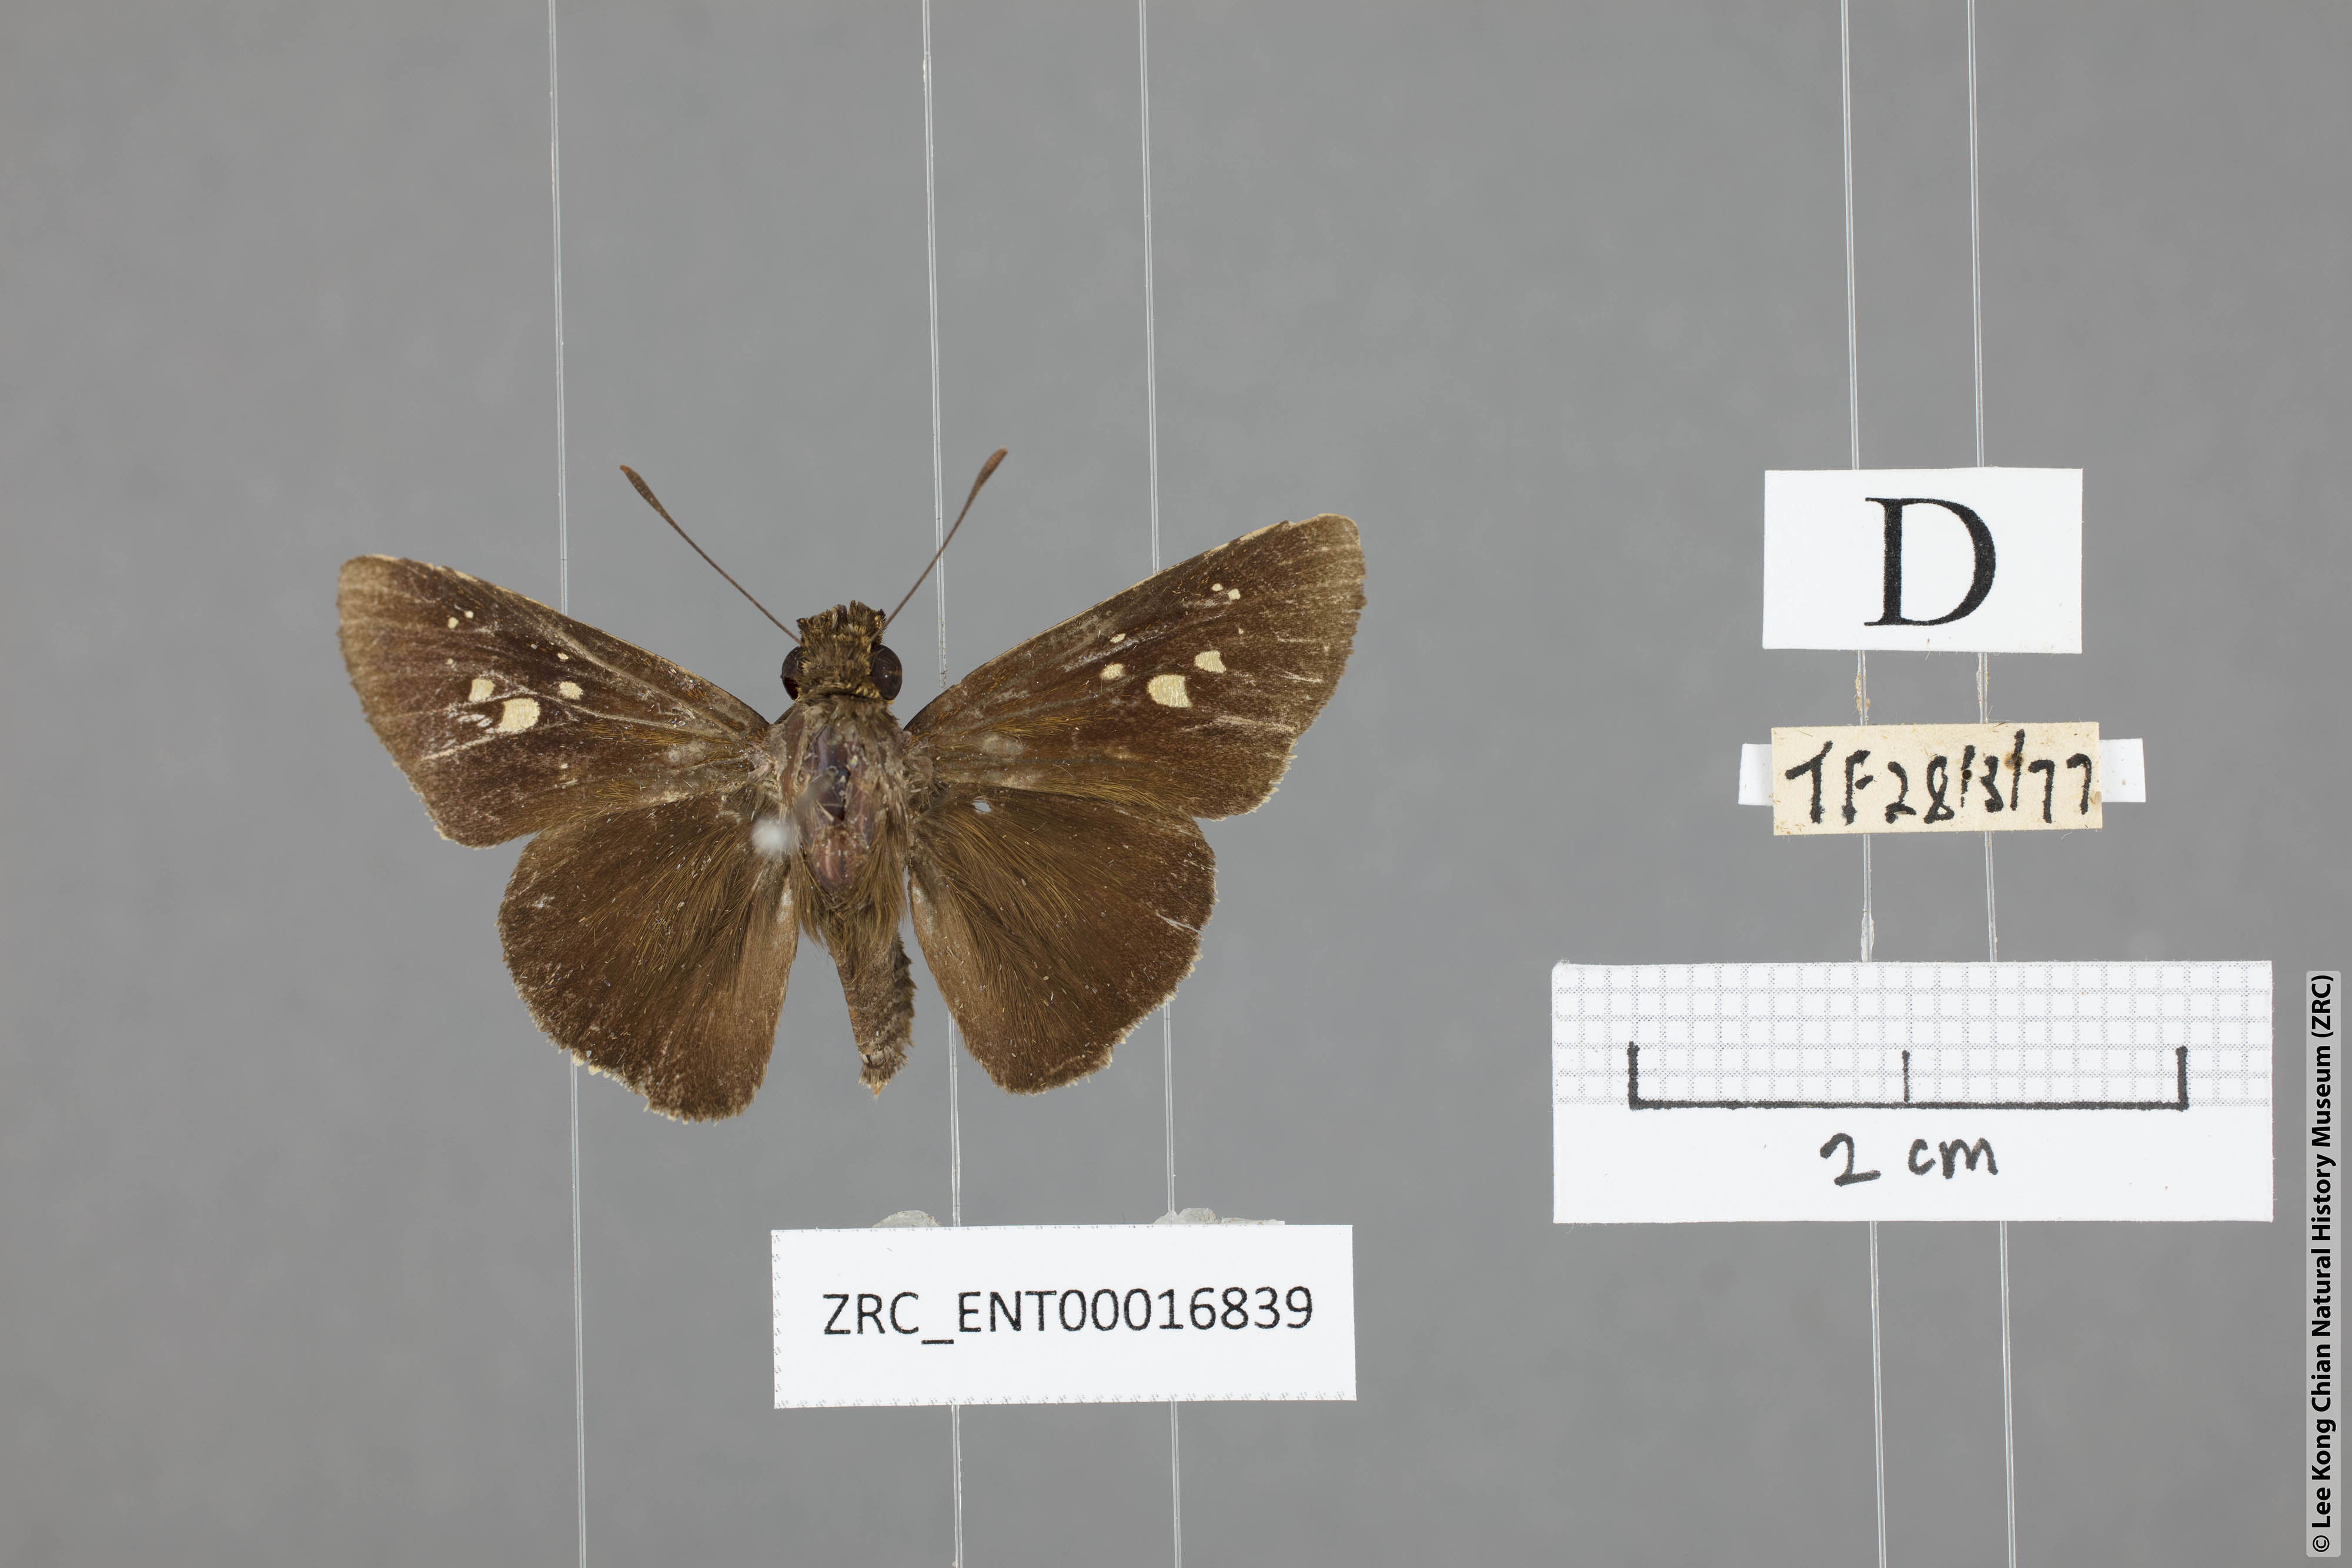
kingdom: Animalia
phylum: Arthropoda
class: Insecta
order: Lepidoptera
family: Hesperiidae
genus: Caltoris
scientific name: Caltoris cormasa
